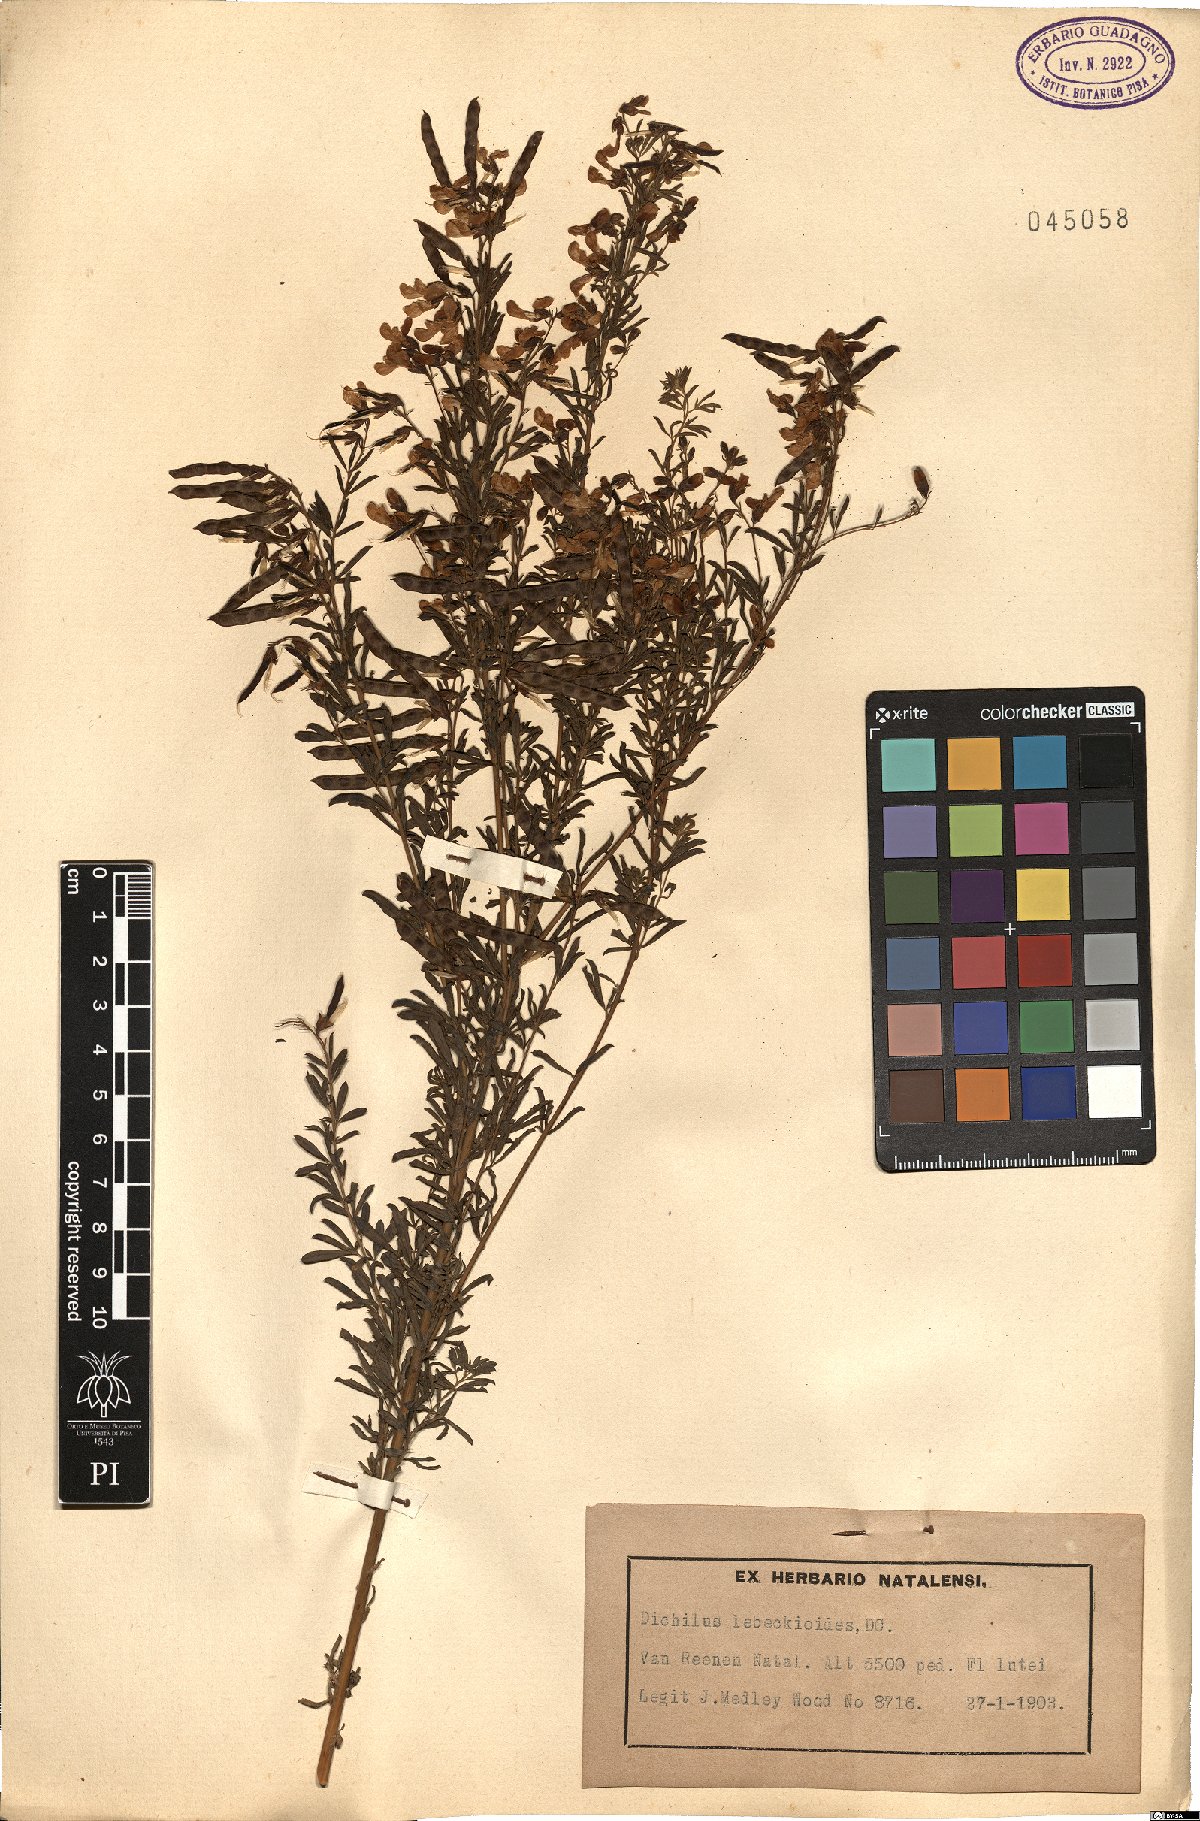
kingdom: Plantae
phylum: Tracheophyta
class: Magnoliopsida
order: Fabales
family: Fabaceae
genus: Dichilus
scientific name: Dichilus lebeckioides
